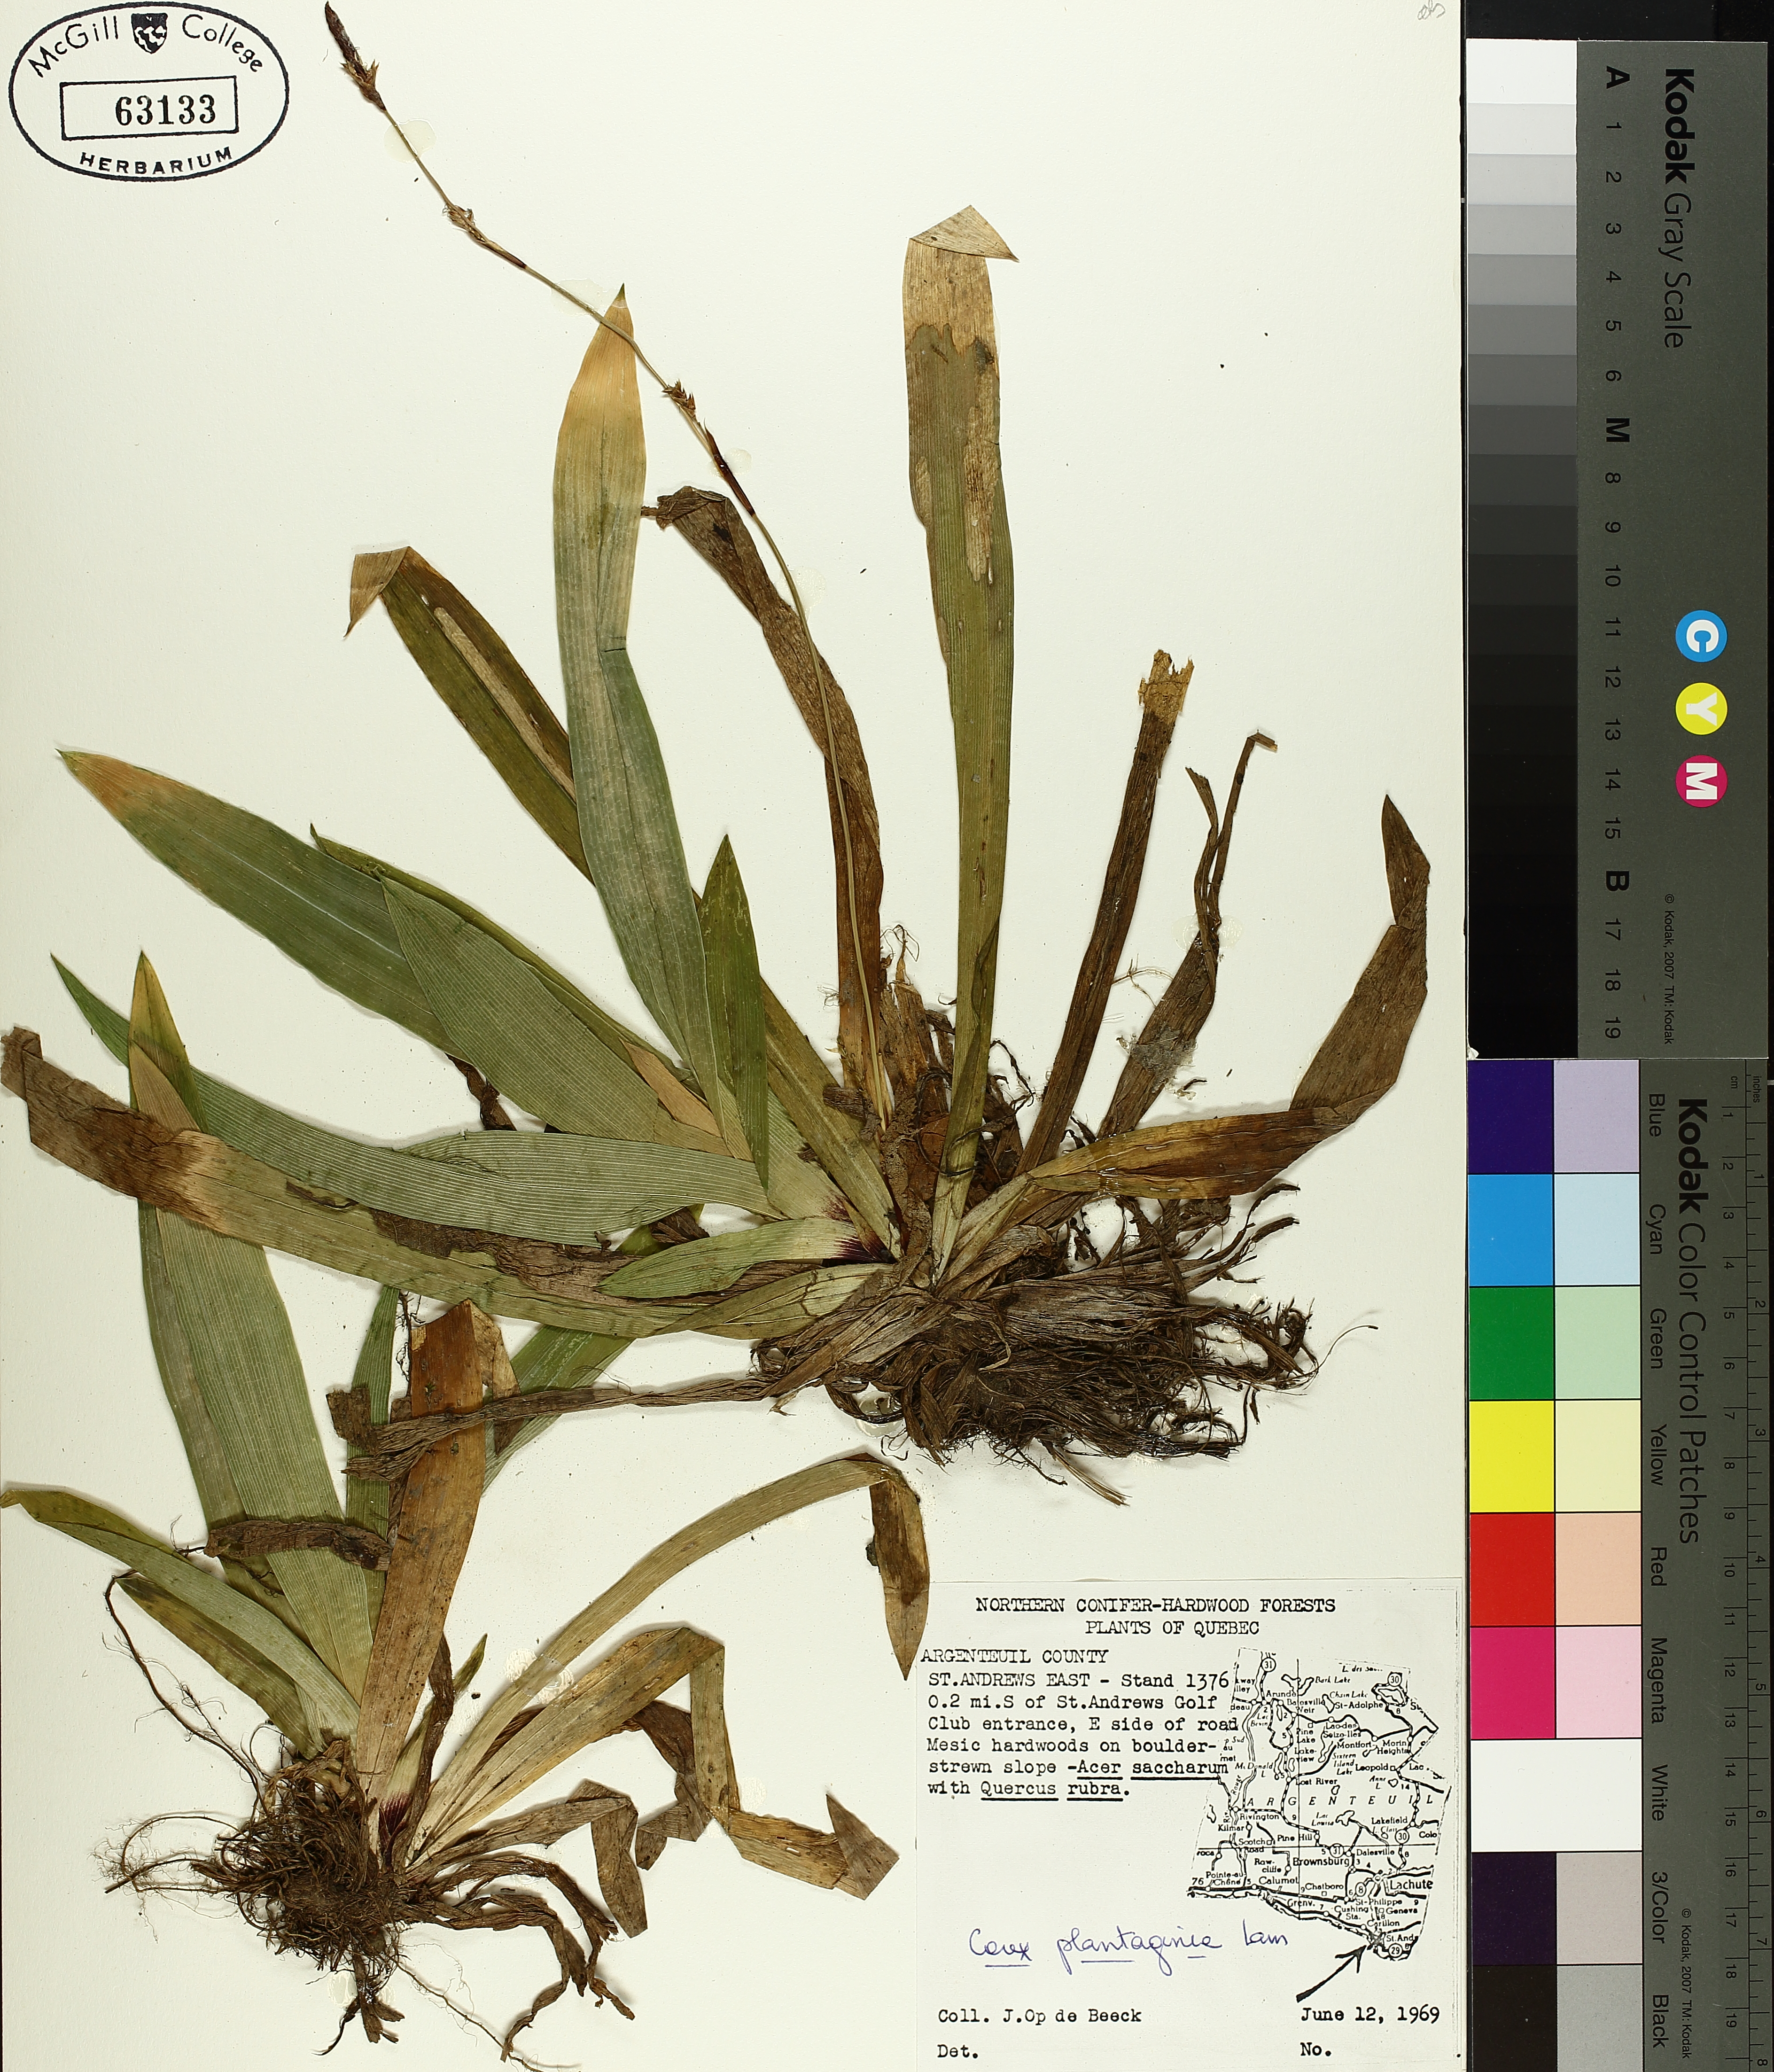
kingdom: Plantae
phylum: Tracheophyta
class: Liliopsida
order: Poales
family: Cyperaceae
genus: Carex
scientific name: Carex plantaginea
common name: Plantain-leaved sedge
